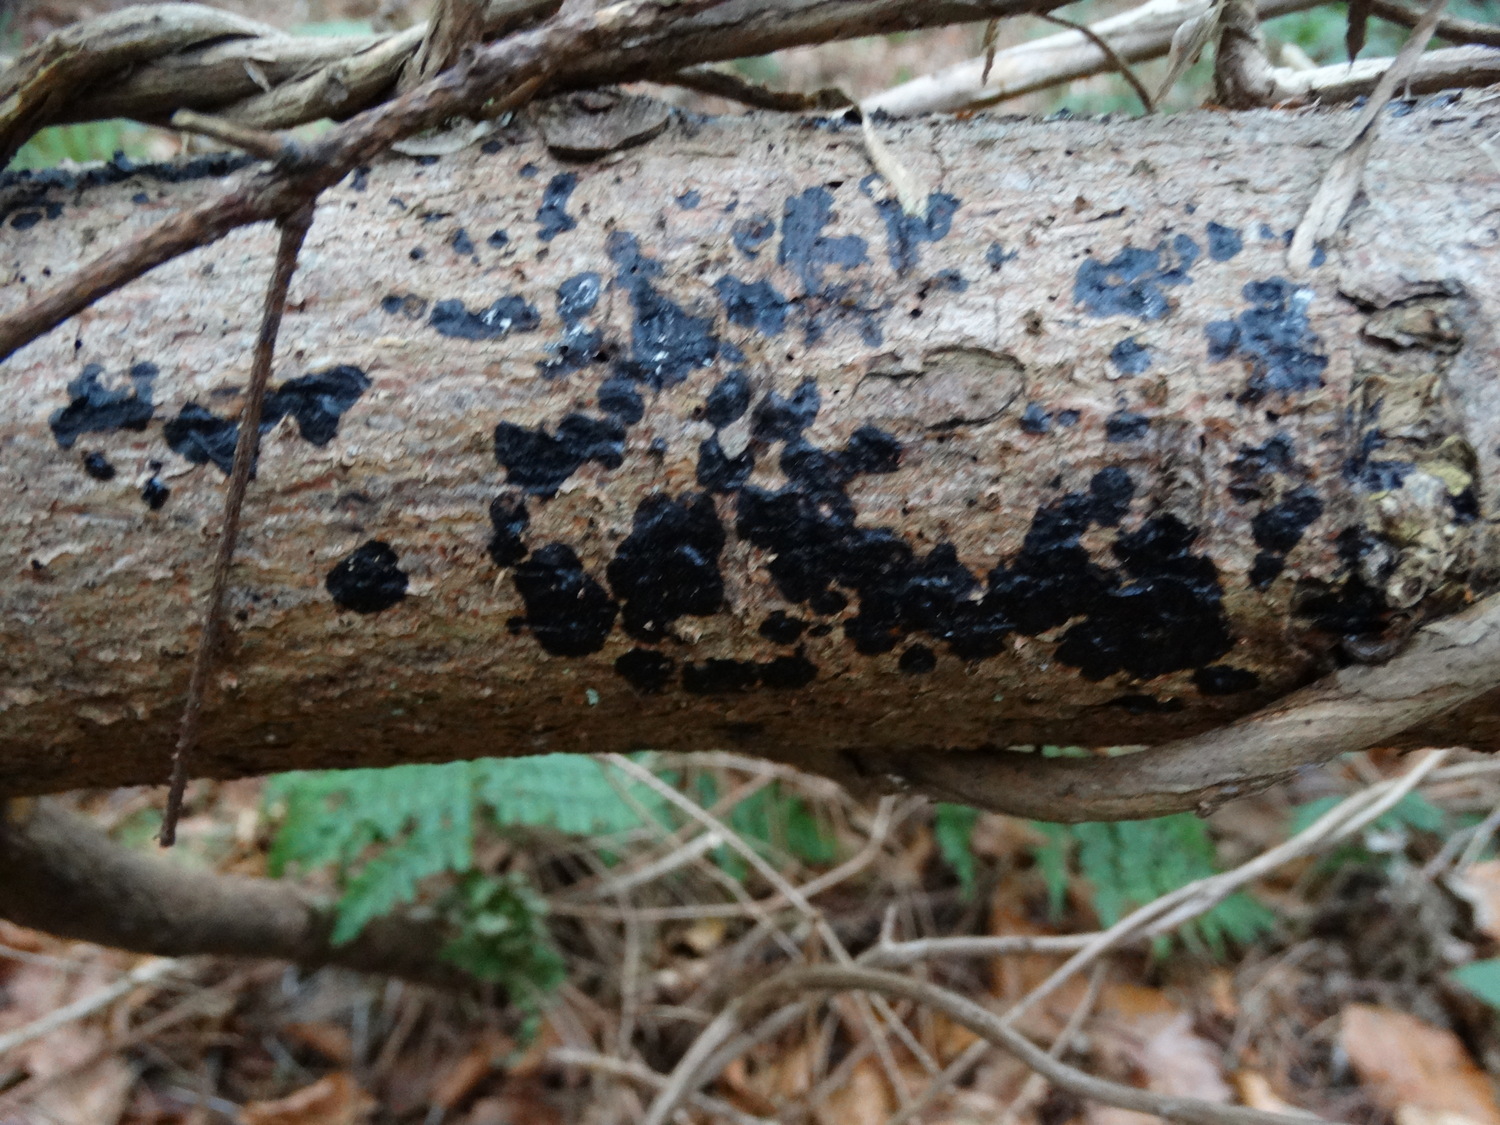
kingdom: Fungi
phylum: Basidiomycota
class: Agaricomycetes
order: Auriculariales
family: Auriculariaceae
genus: Exidia
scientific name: Exidia pithya
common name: gran-bævretop
